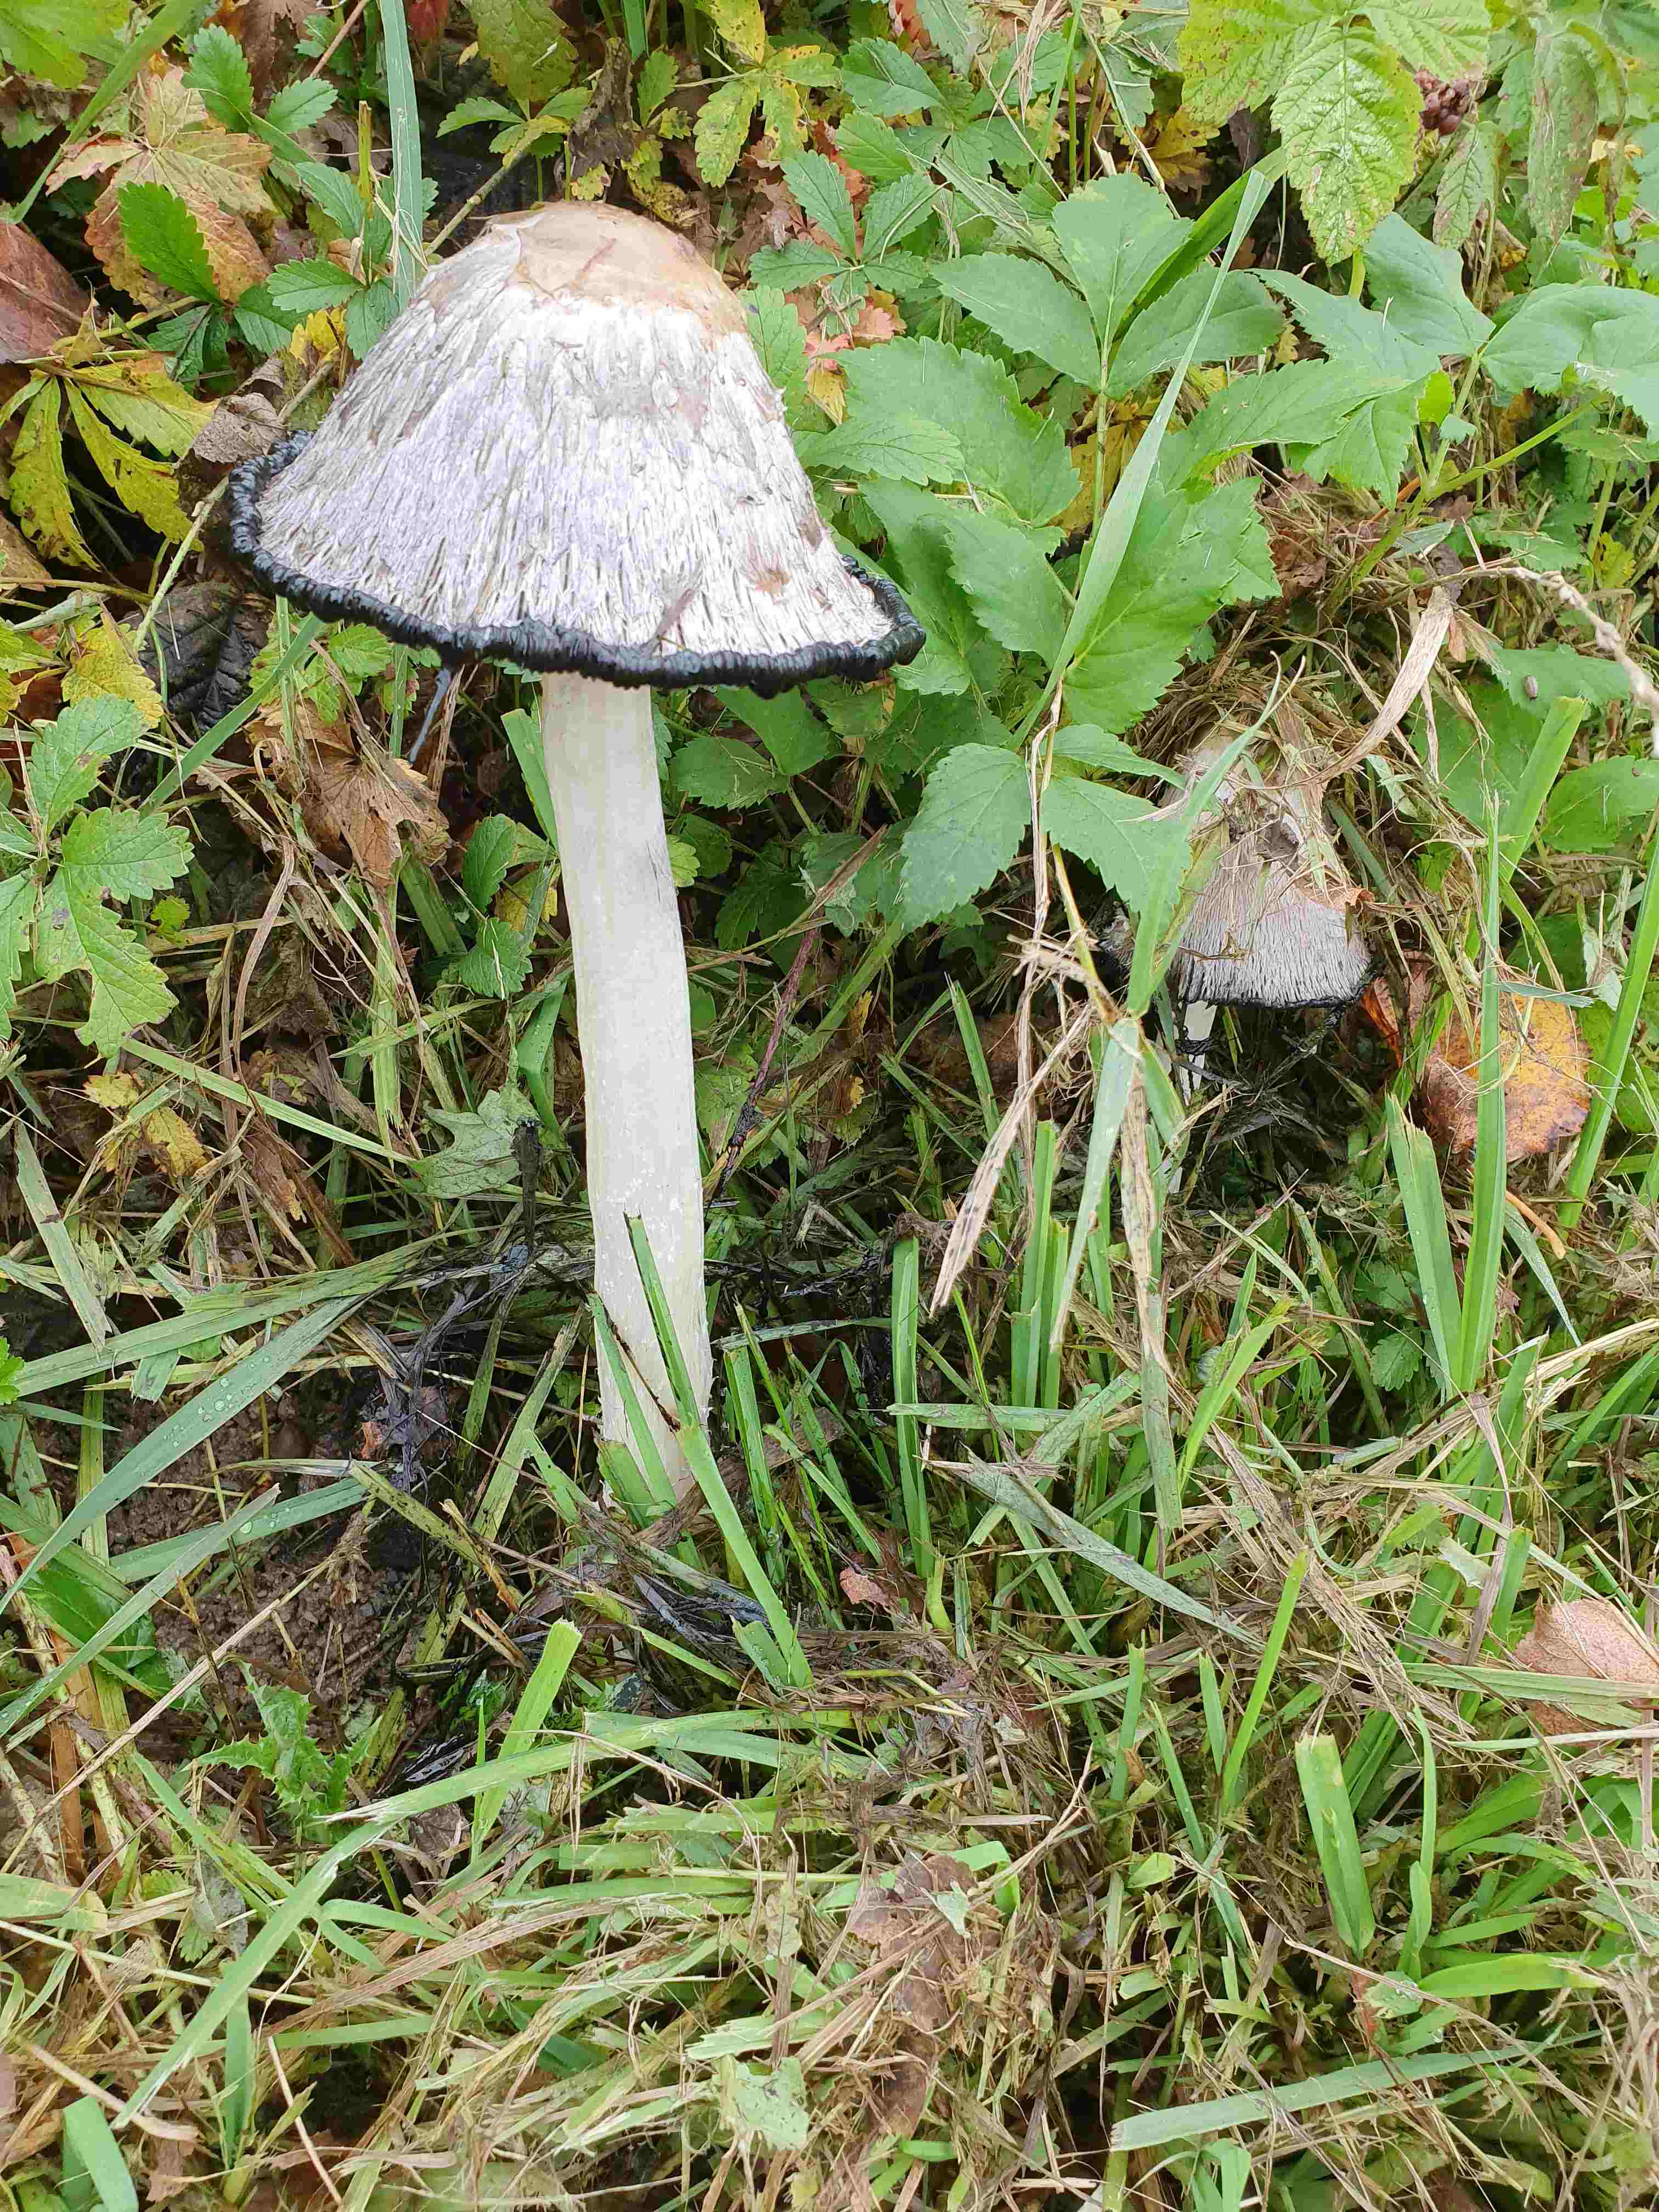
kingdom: Fungi
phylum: Basidiomycota
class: Agaricomycetes
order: Agaricales
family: Agaricaceae
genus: Coprinus
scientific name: Coprinus comatus
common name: stor parykhat
